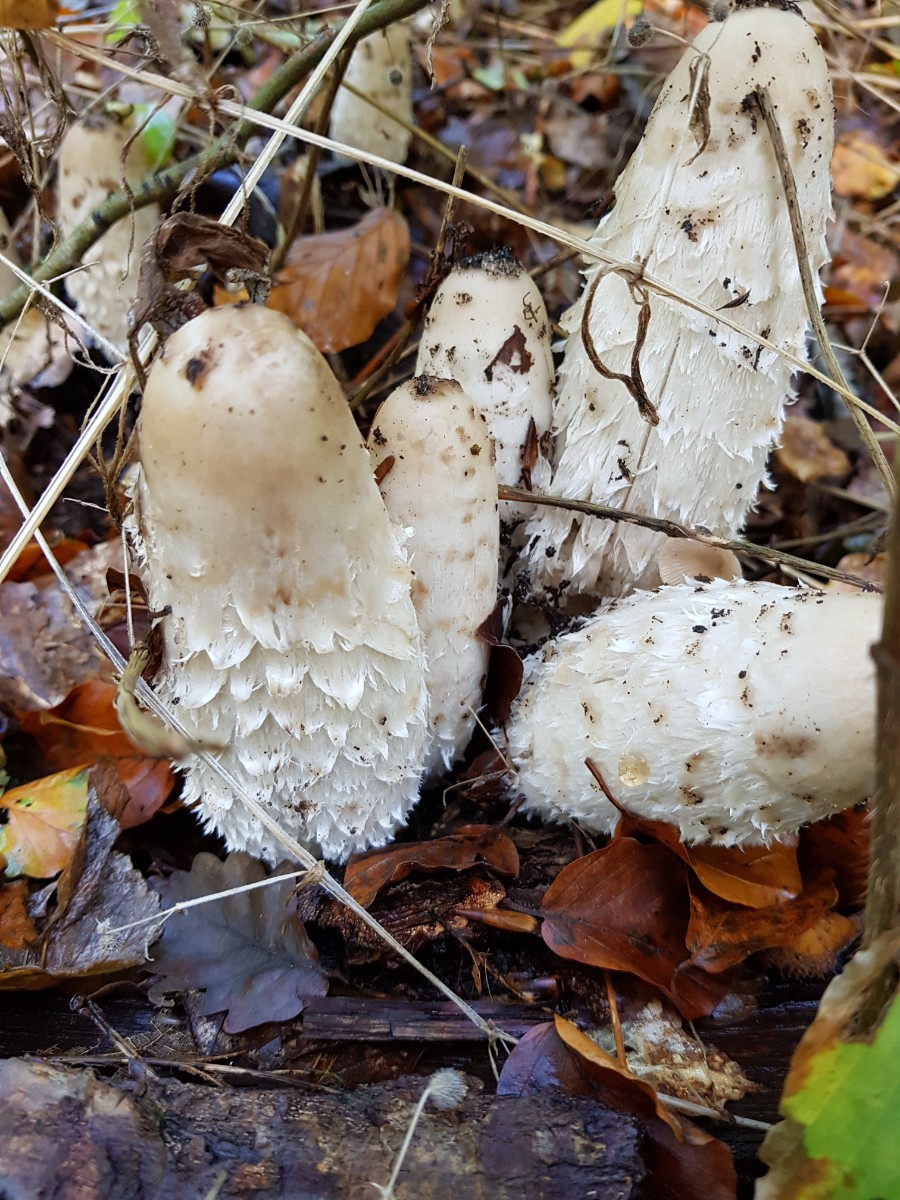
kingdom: Fungi
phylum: Basidiomycota
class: Agaricomycetes
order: Agaricales
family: Agaricaceae
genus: Coprinus
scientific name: Coprinus comatus
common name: stor parykhat
